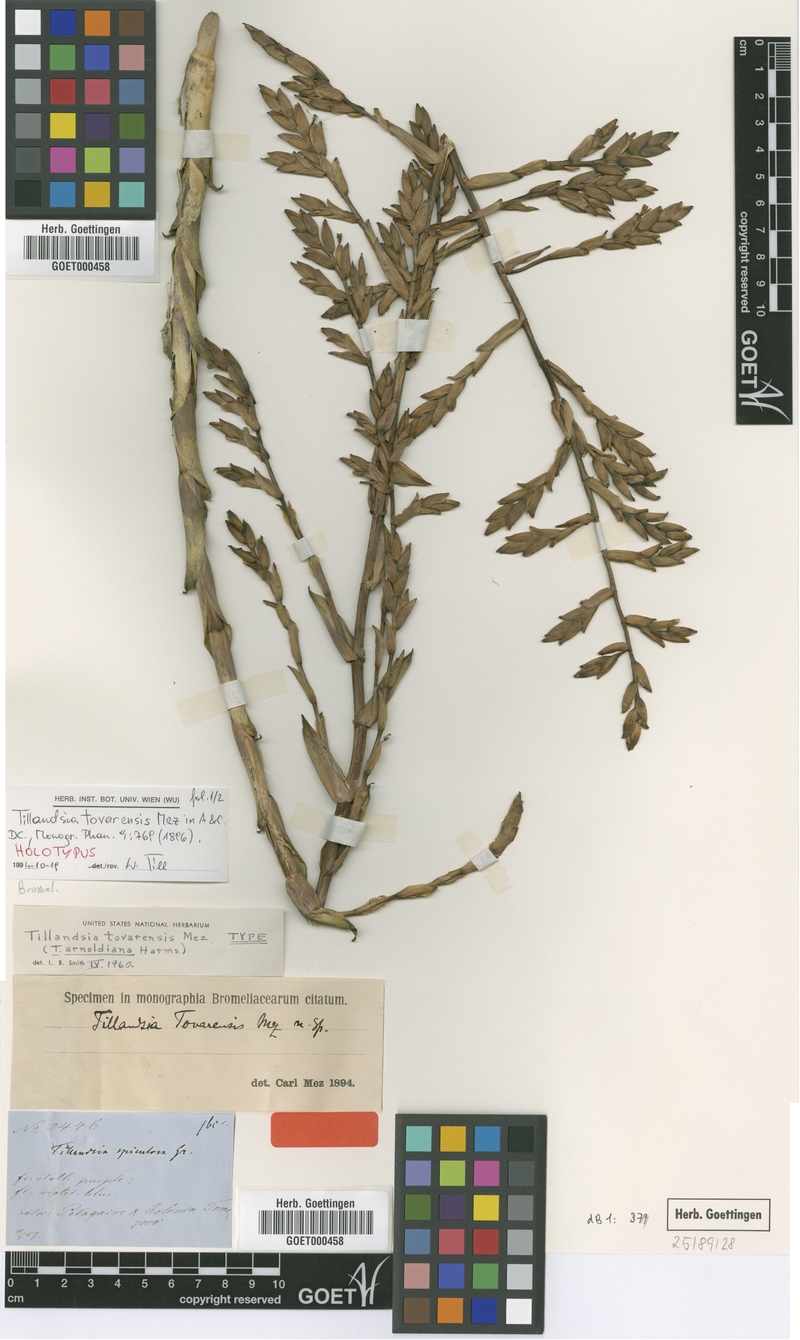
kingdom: Plantae
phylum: Tracheophyta
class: Liliopsida
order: Poales
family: Bromeliaceae
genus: Tillandsia
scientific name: Tillandsia tovarensis
